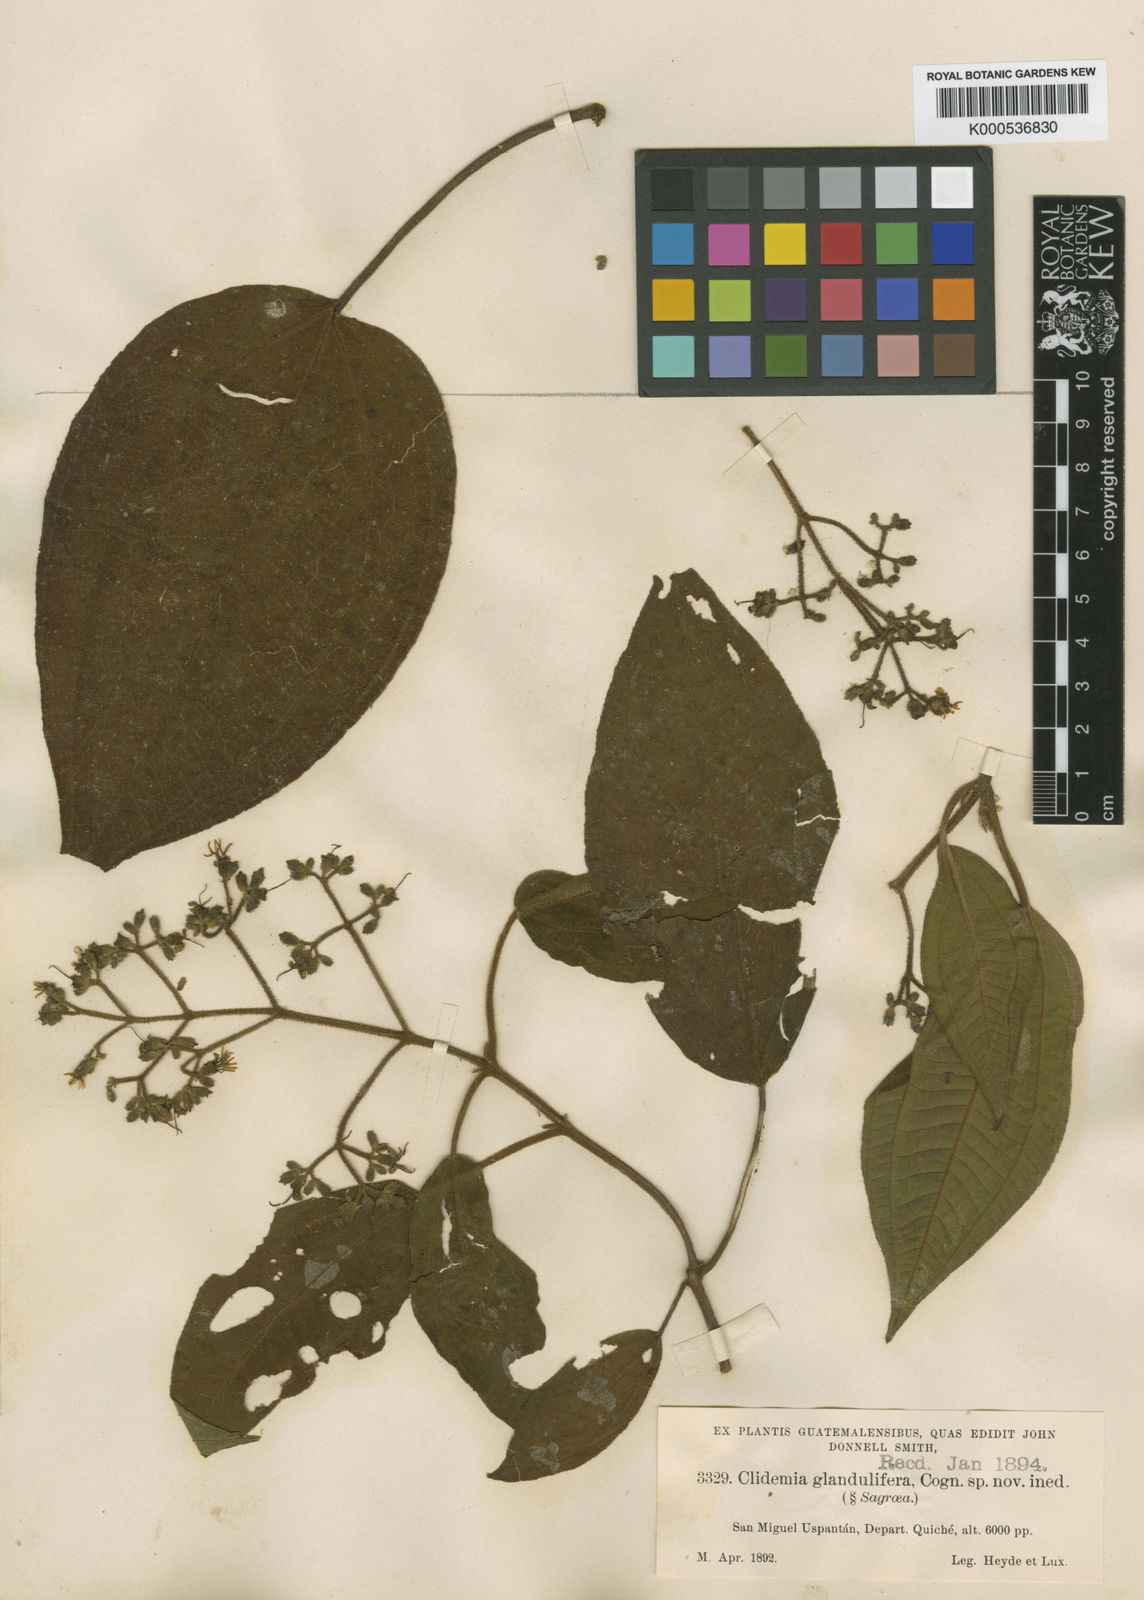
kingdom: Plantae
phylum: Tracheophyta
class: Magnoliopsida
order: Myrtales
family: Melastomataceae
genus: Miconia
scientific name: Miconia
